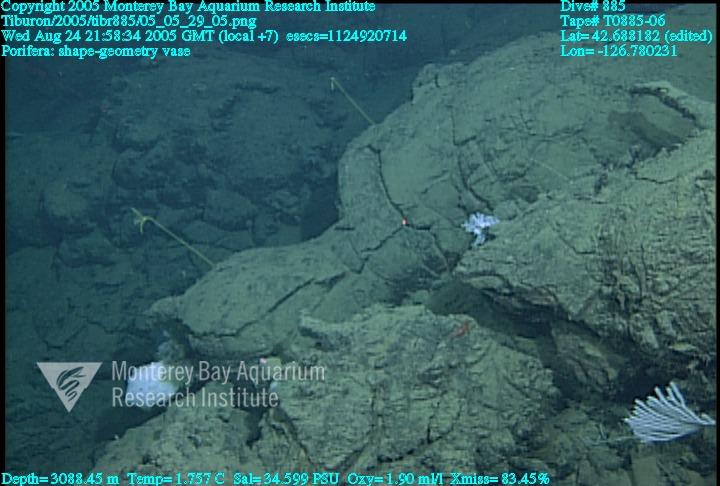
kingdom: Animalia
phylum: Porifera
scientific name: Porifera
